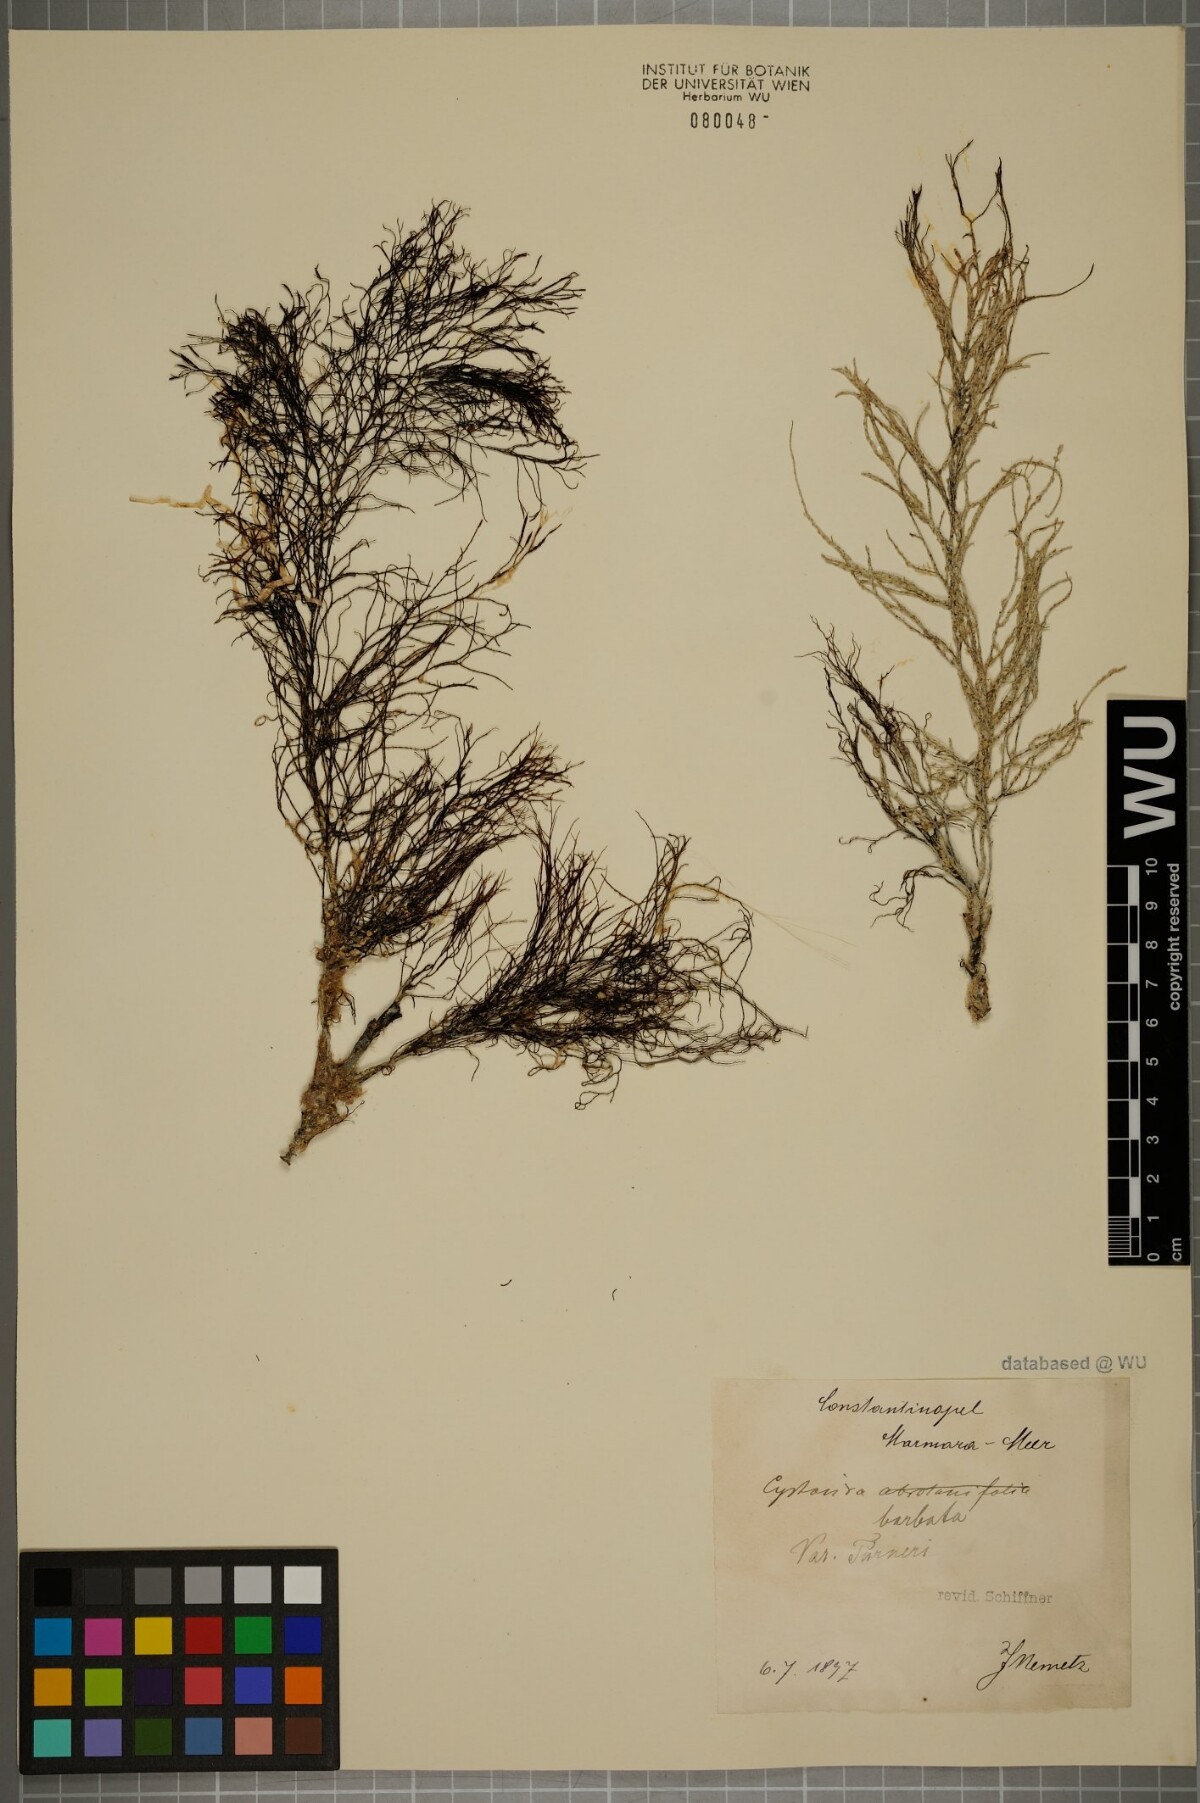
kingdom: Chromista
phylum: Ochrophyta
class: Phaeophyceae
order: Fucales
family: Sargassaceae
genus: Cystoseira
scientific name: Cystoseira Gongolaria barbata
